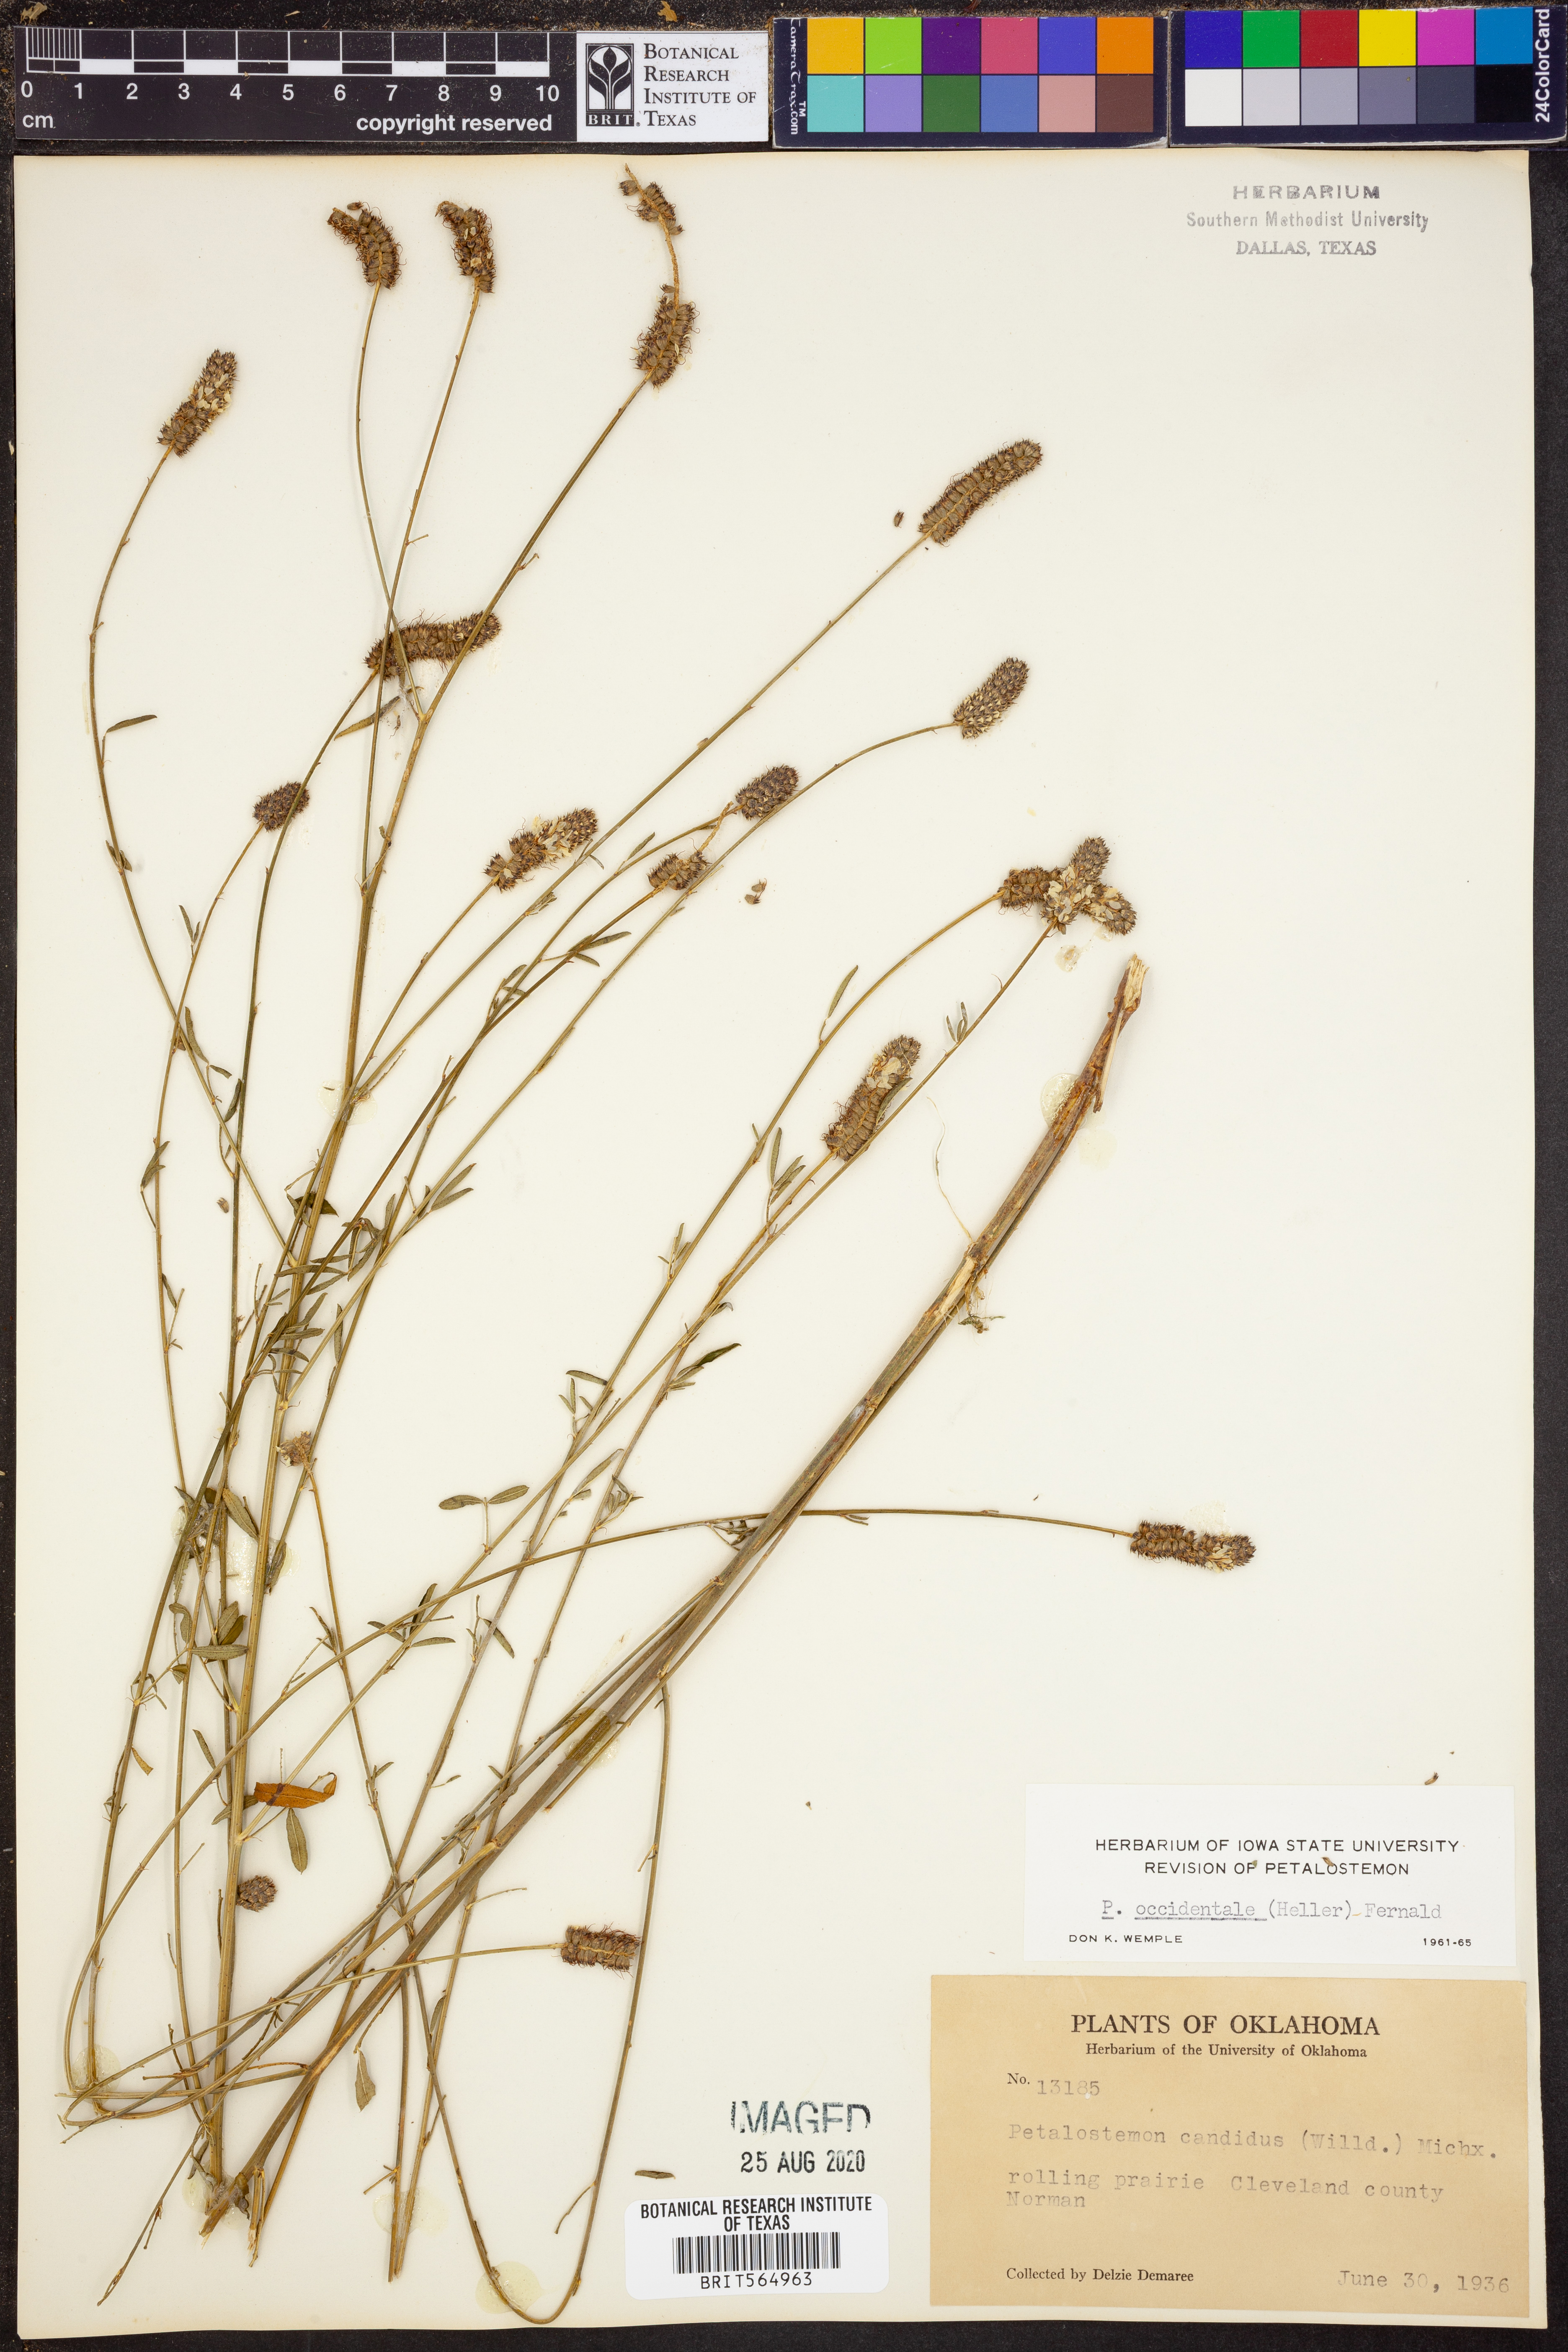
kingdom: Plantae
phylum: Tracheophyta
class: Magnoliopsida
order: Fabales
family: Fabaceae
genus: Dalea
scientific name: Dalea candida
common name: White prairie-clover
